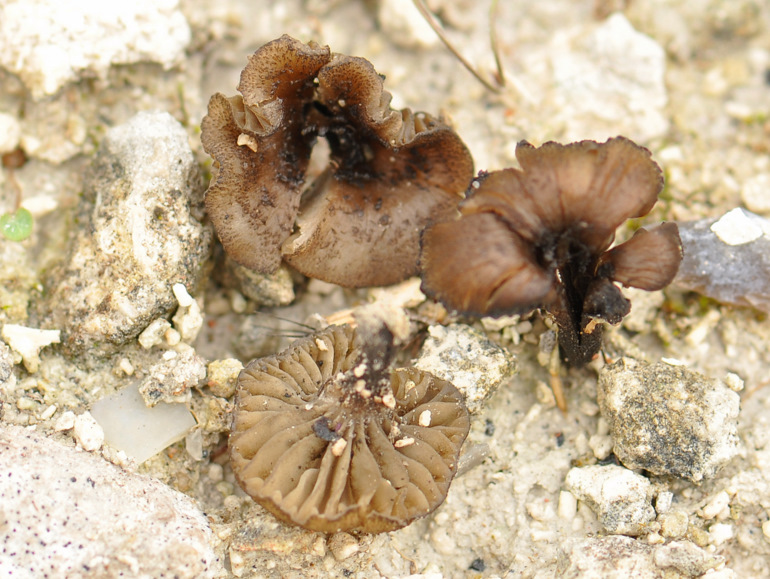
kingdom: Fungi
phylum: Basidiomycota
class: Agaricomycetes
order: Agaricales
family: Tricholomataceae
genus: Melanomphalia
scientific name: Melanomphalia nigrescens
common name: sørgehat
